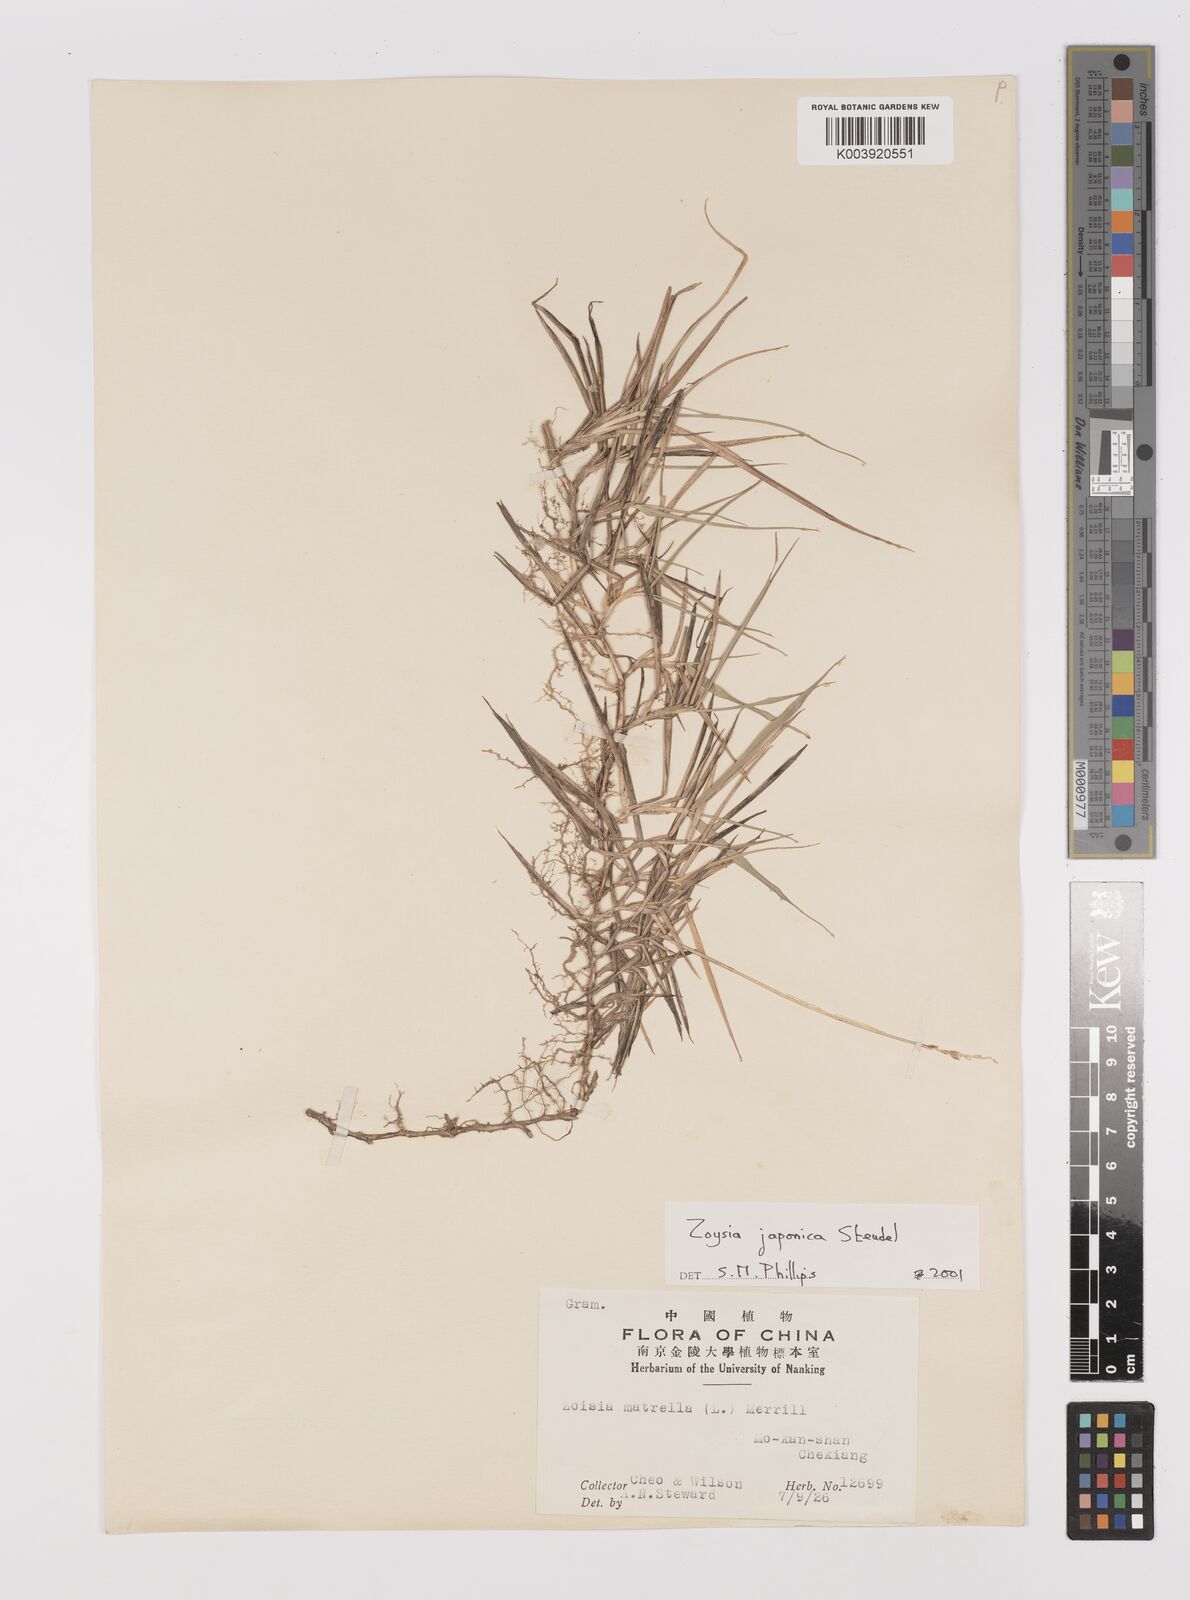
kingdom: Plantae
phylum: Tracheophyta
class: Liliopsida
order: Poales
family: Poaceae
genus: Zoysia
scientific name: Zoysia japonica
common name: Korean lawngrass
